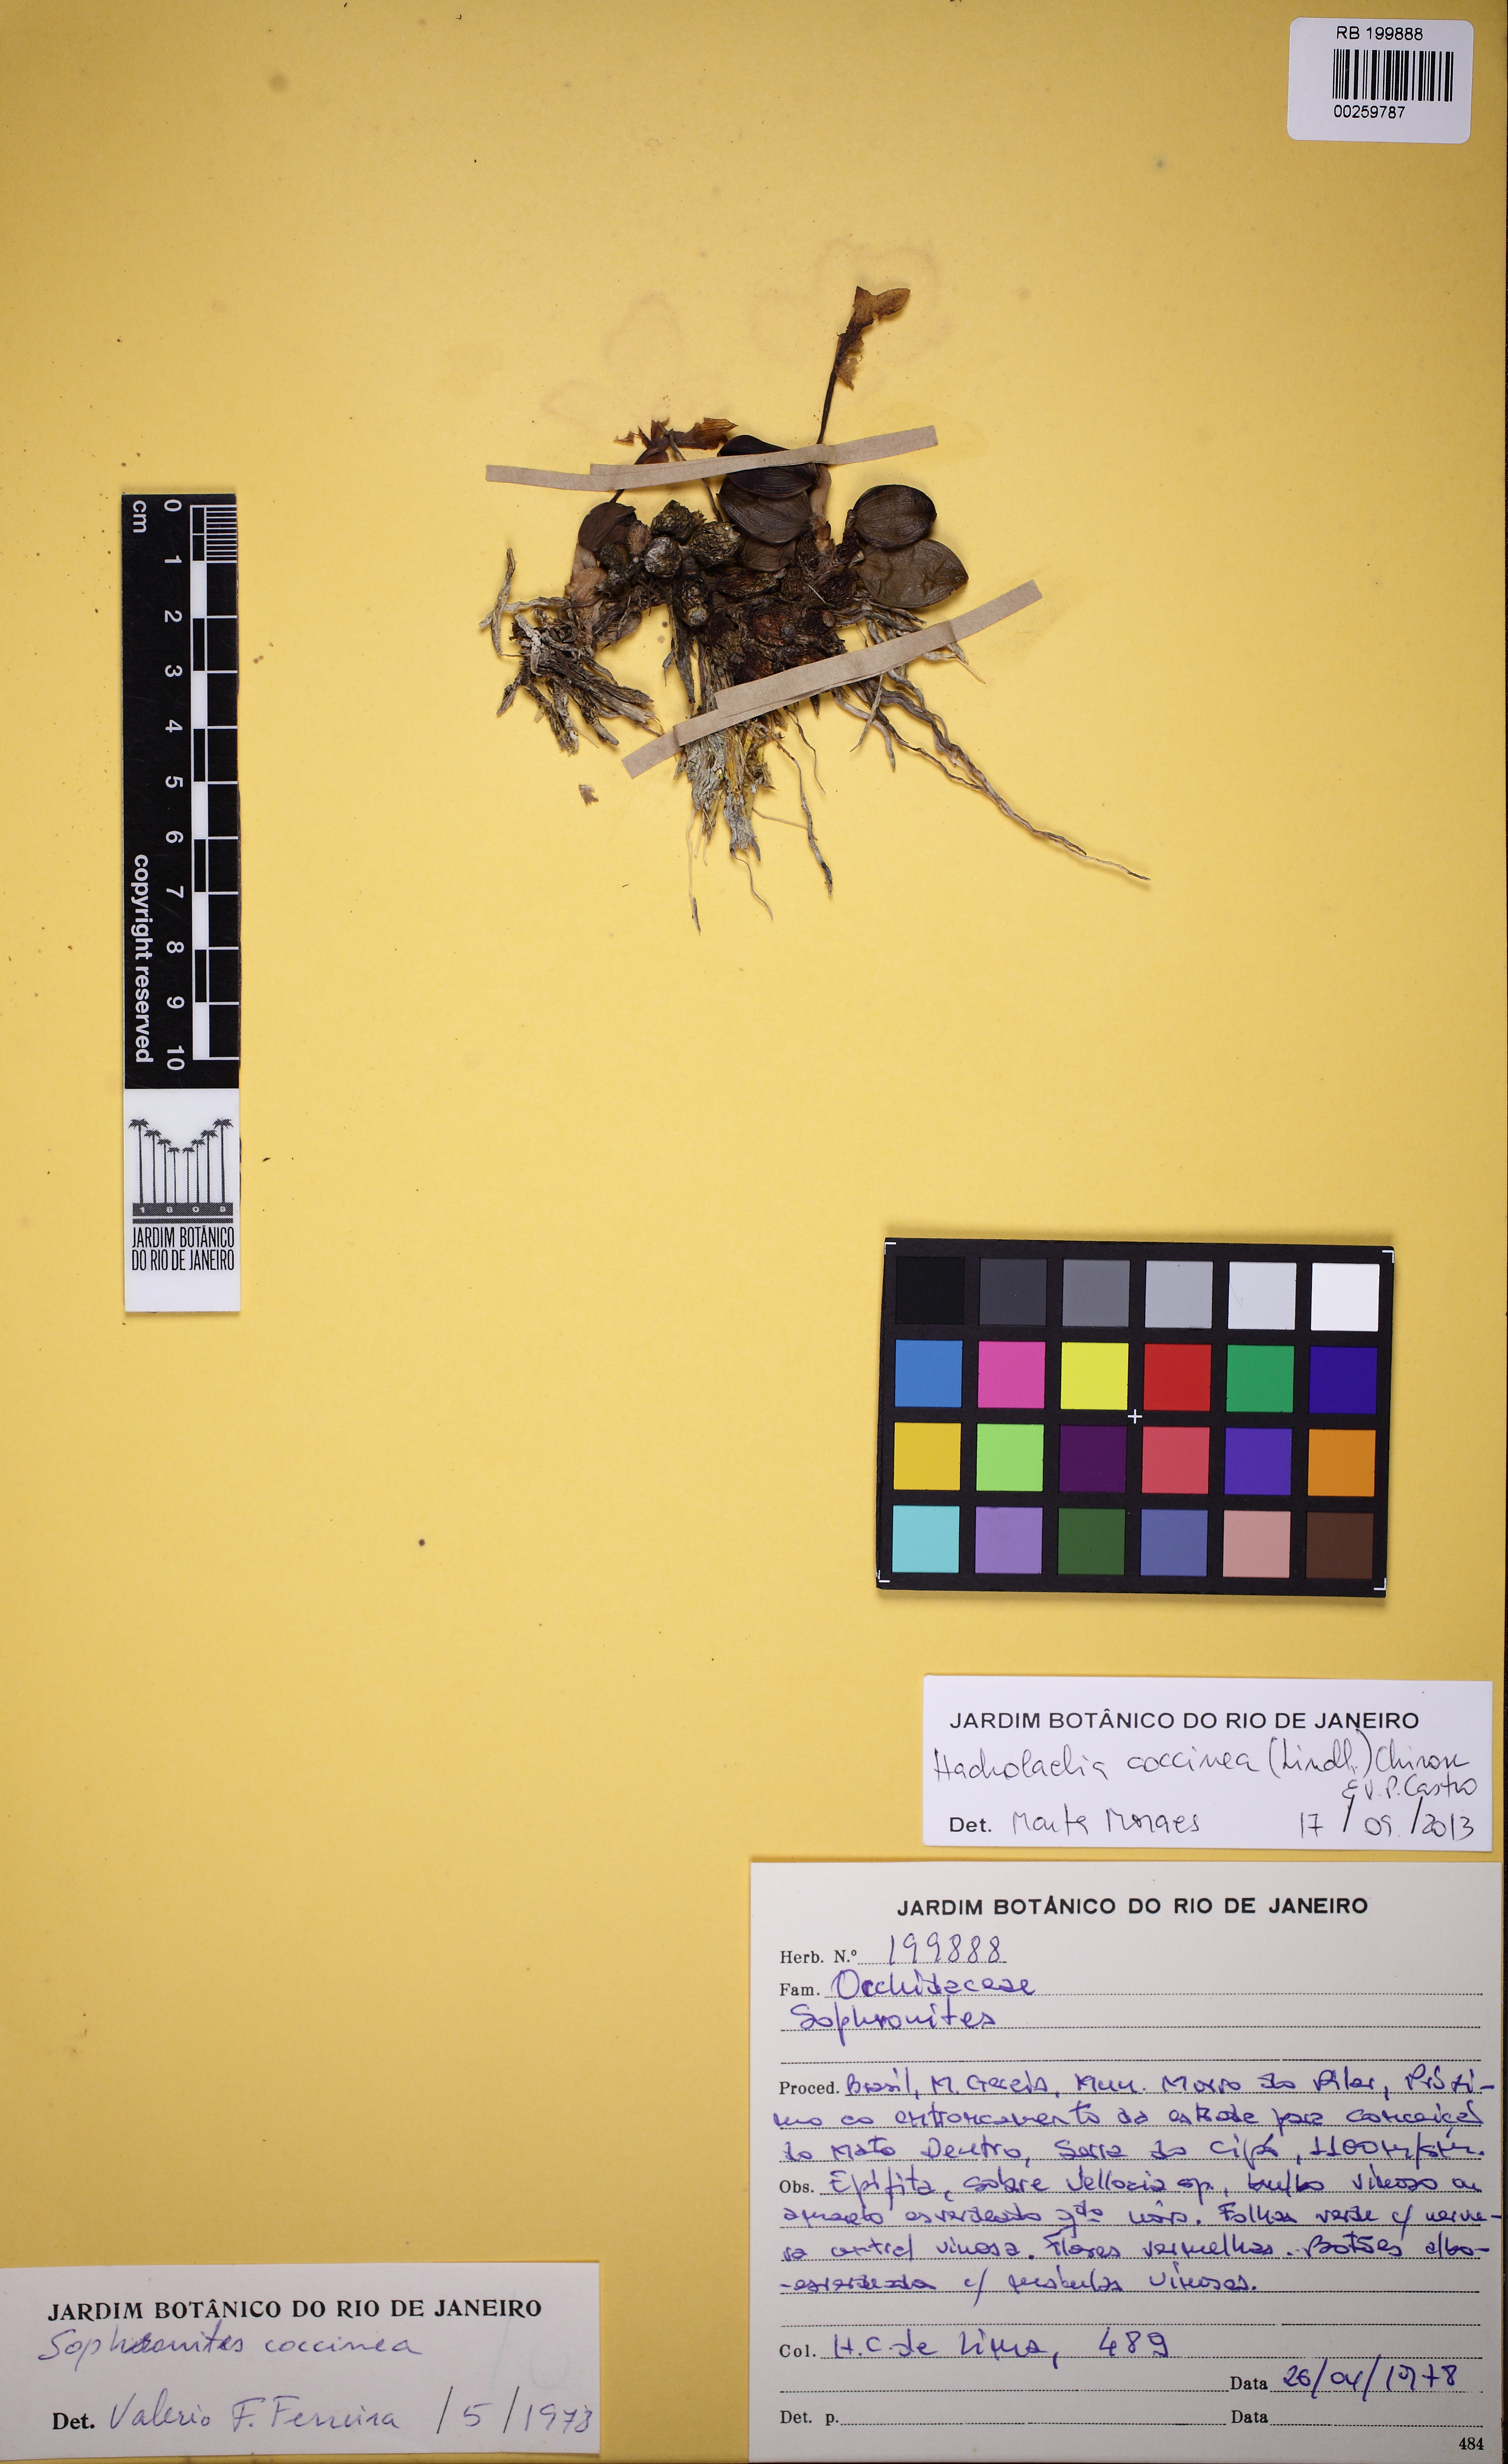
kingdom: Plantae
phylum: Tracheophyta
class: Liliopsida
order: Asparagales
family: Orchidaceae
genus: Cattleya
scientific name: Cattleya coccinea
